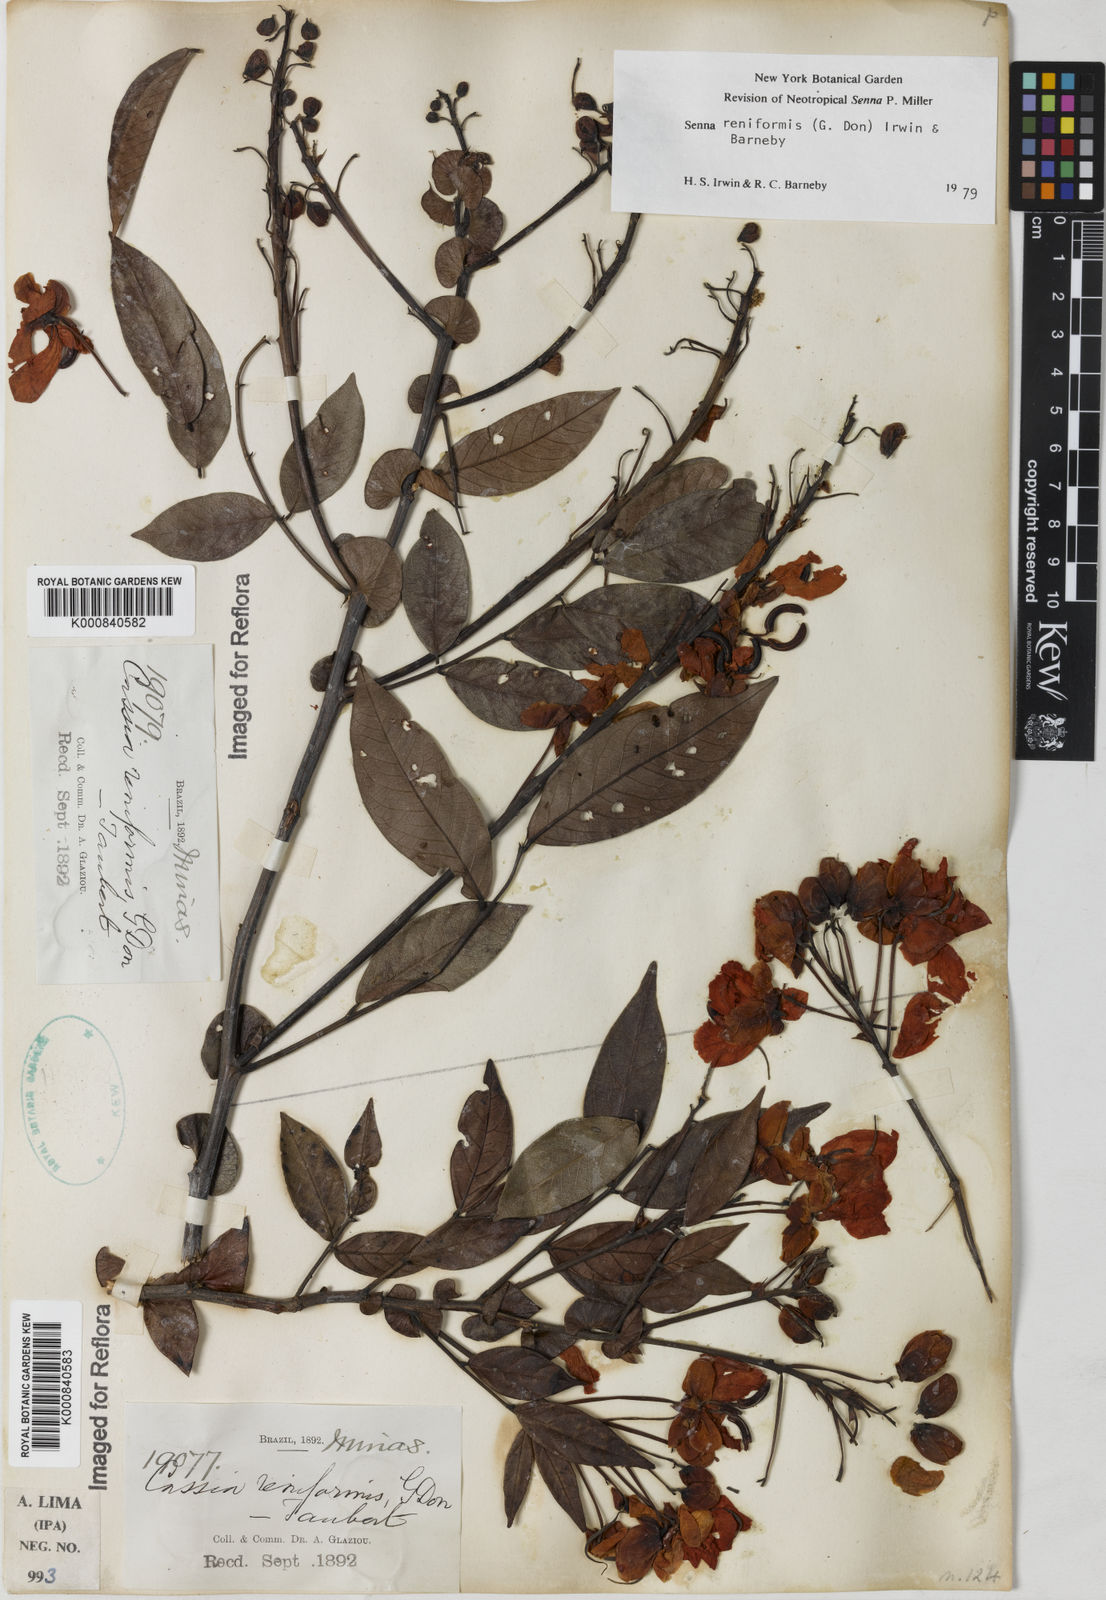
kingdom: Plantae
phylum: Tracheophyta
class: Magnoliopsida
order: Fabales
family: Fabaceae
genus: Senna
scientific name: Senna reniformis
